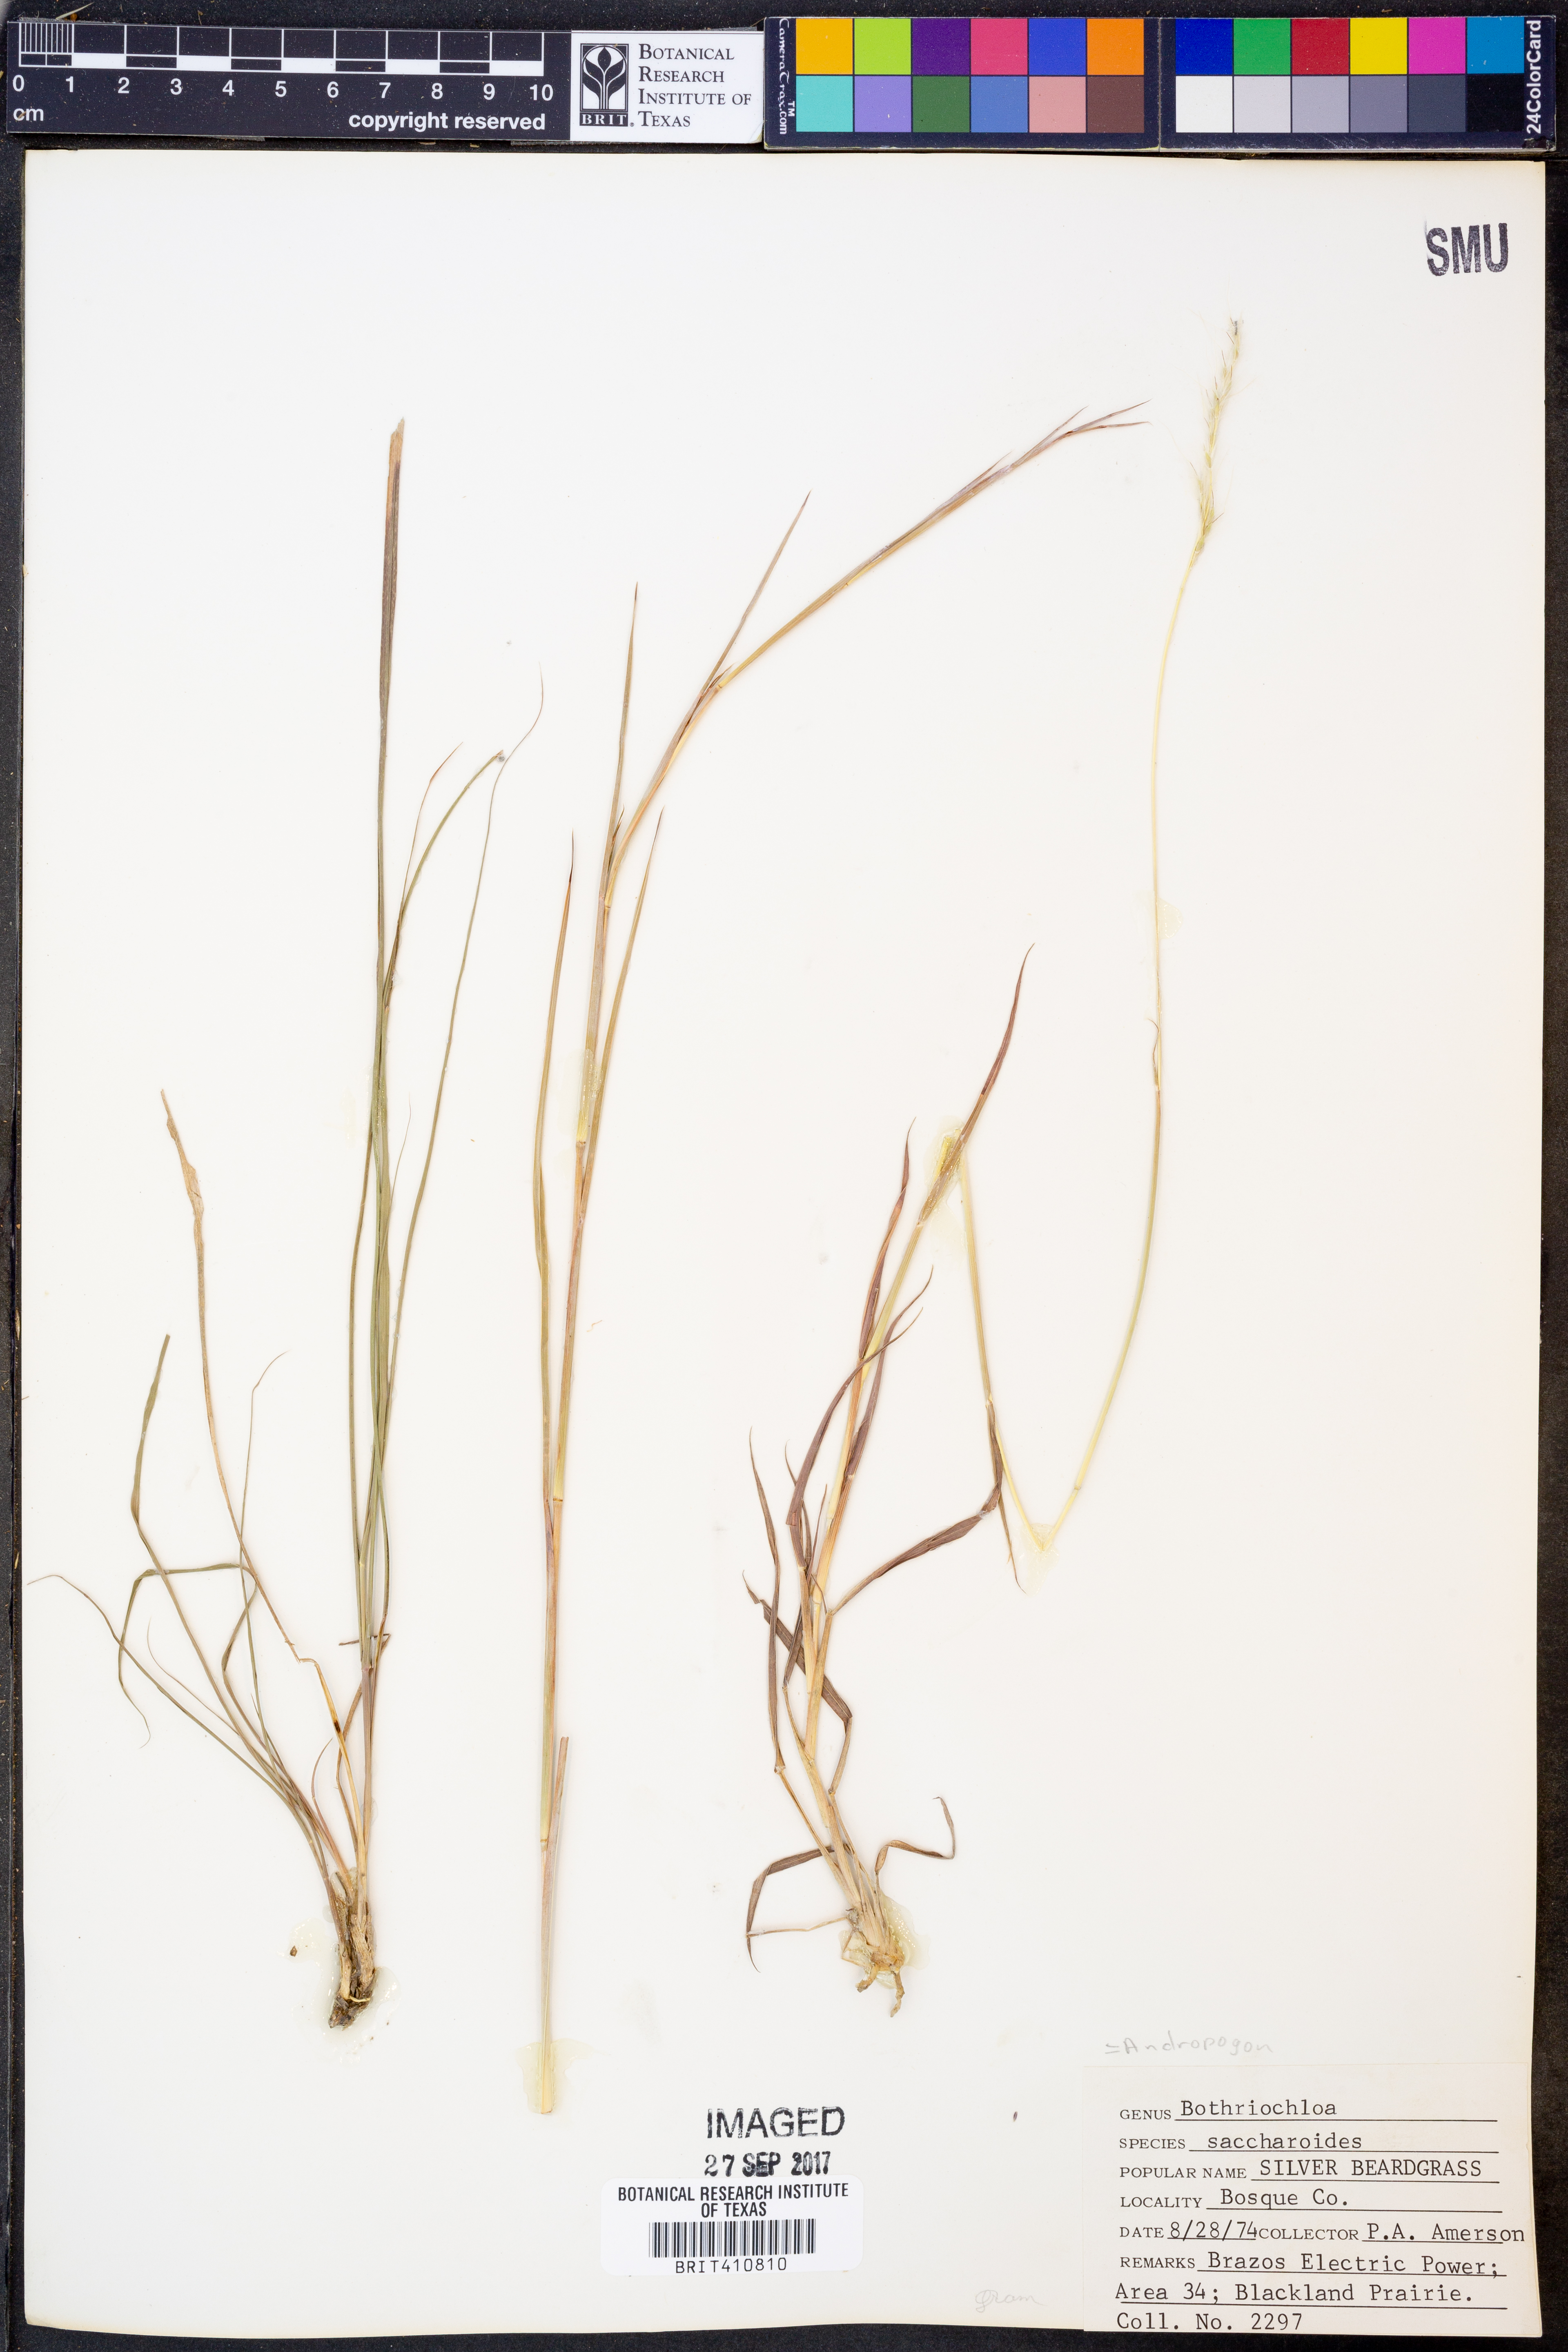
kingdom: Plantae
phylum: Tracheophyta
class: Liliopsida
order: Poales
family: Poaceae
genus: Bothriochloa
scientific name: Bothriochloa saccharoides
